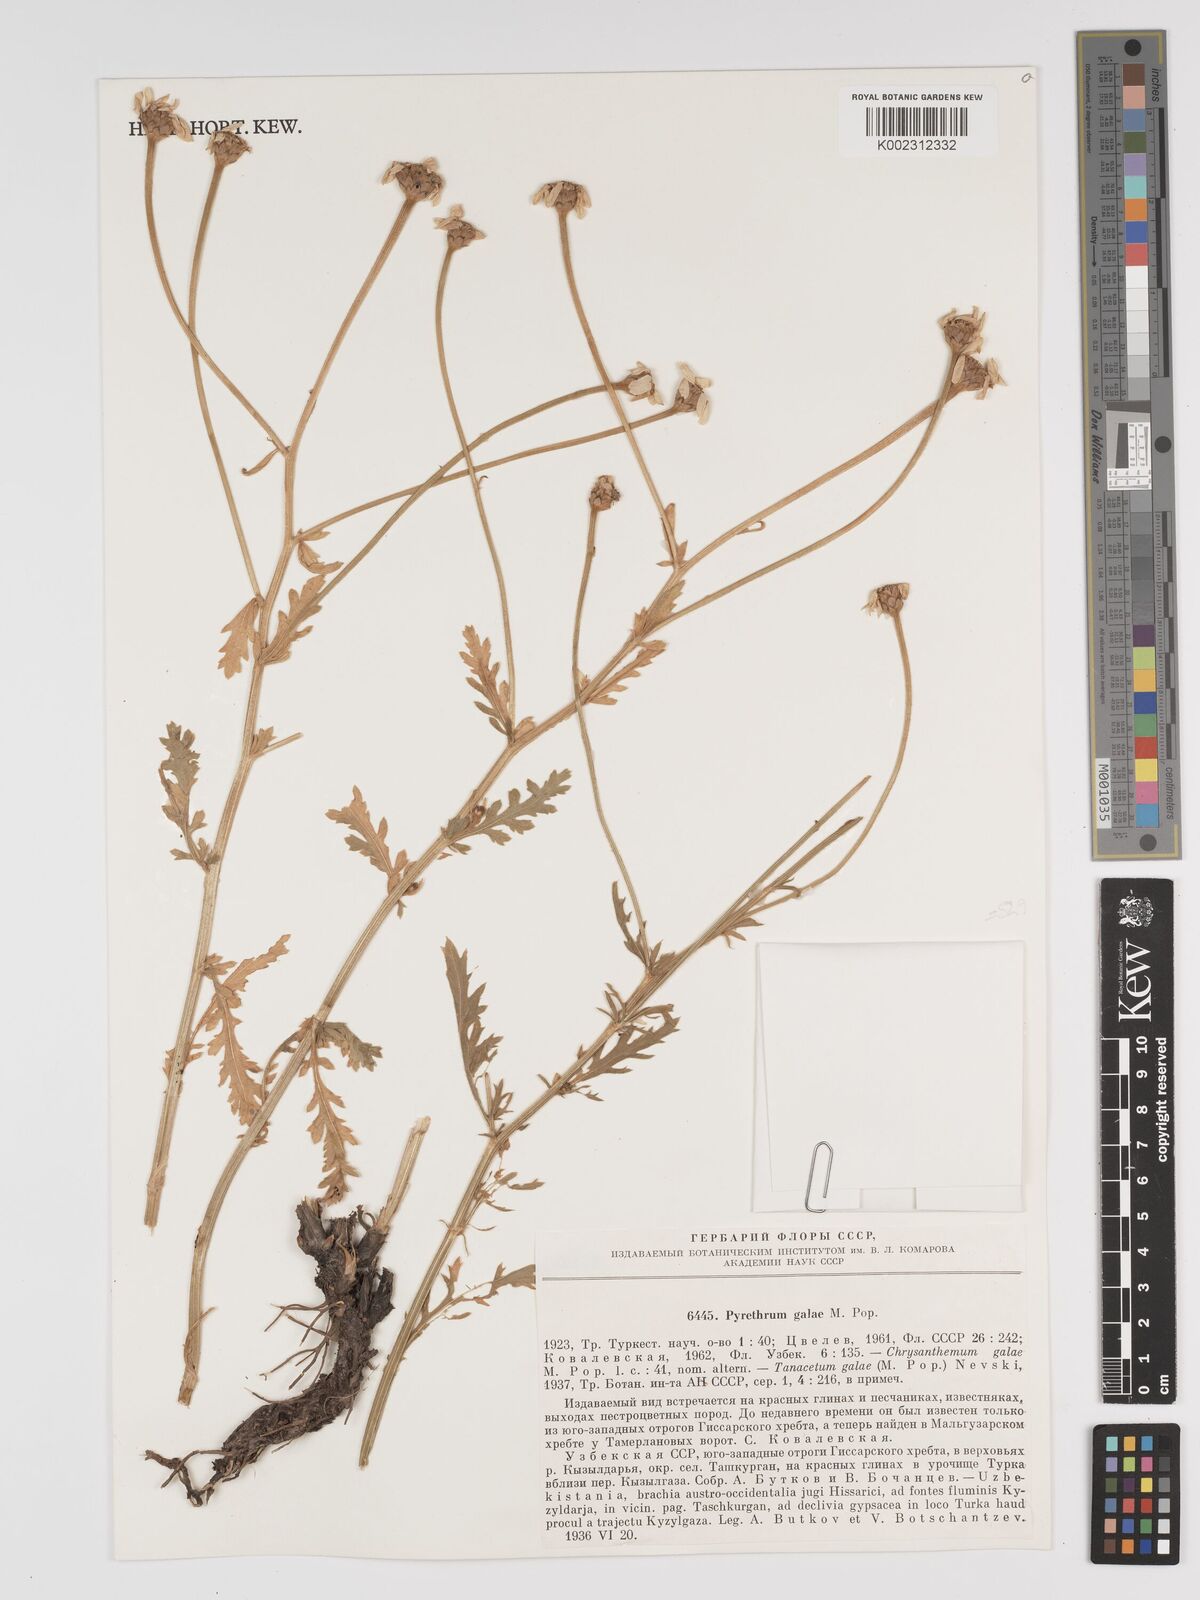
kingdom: Plantae
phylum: Tracheophyta
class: Magnoliopsida
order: Asterales
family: Asteraceae
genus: Tanacetum
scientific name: Tanacetum galae
